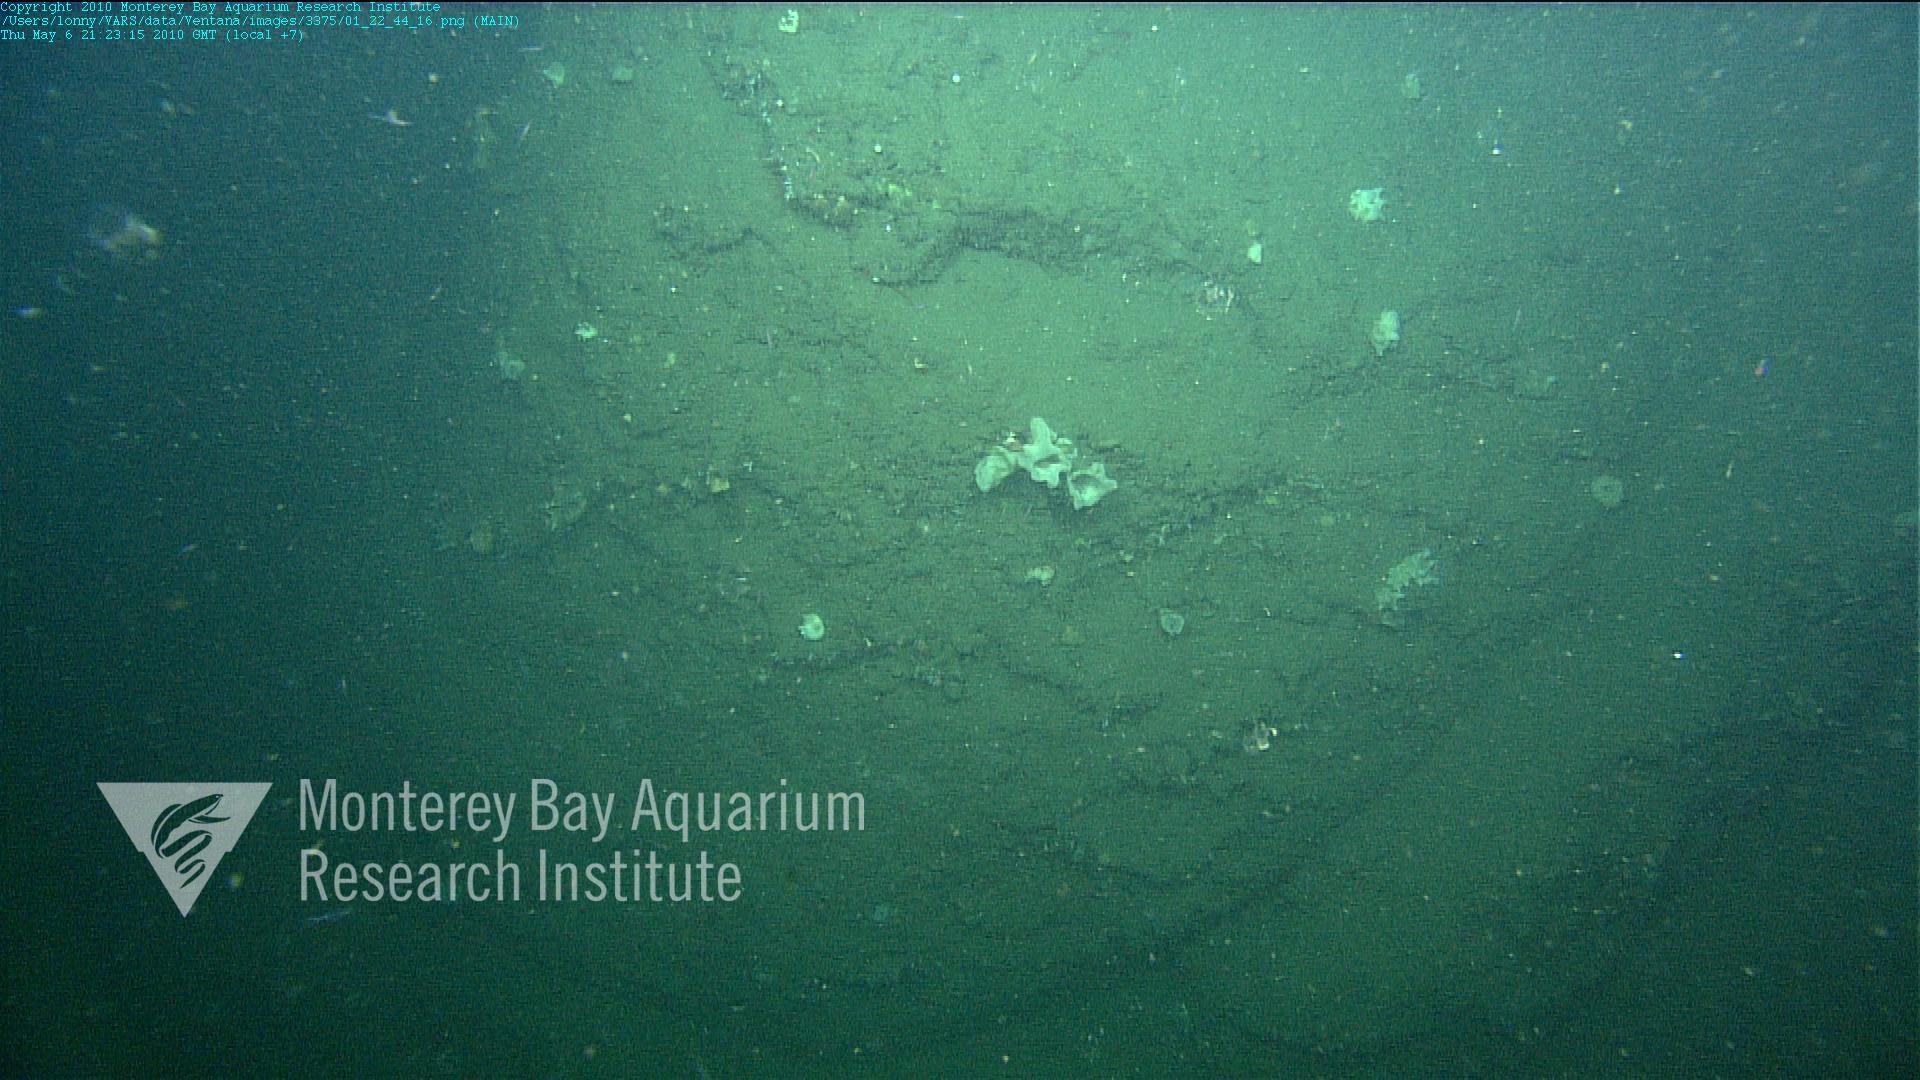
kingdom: Animalia
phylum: Porifera
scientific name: Porifera
